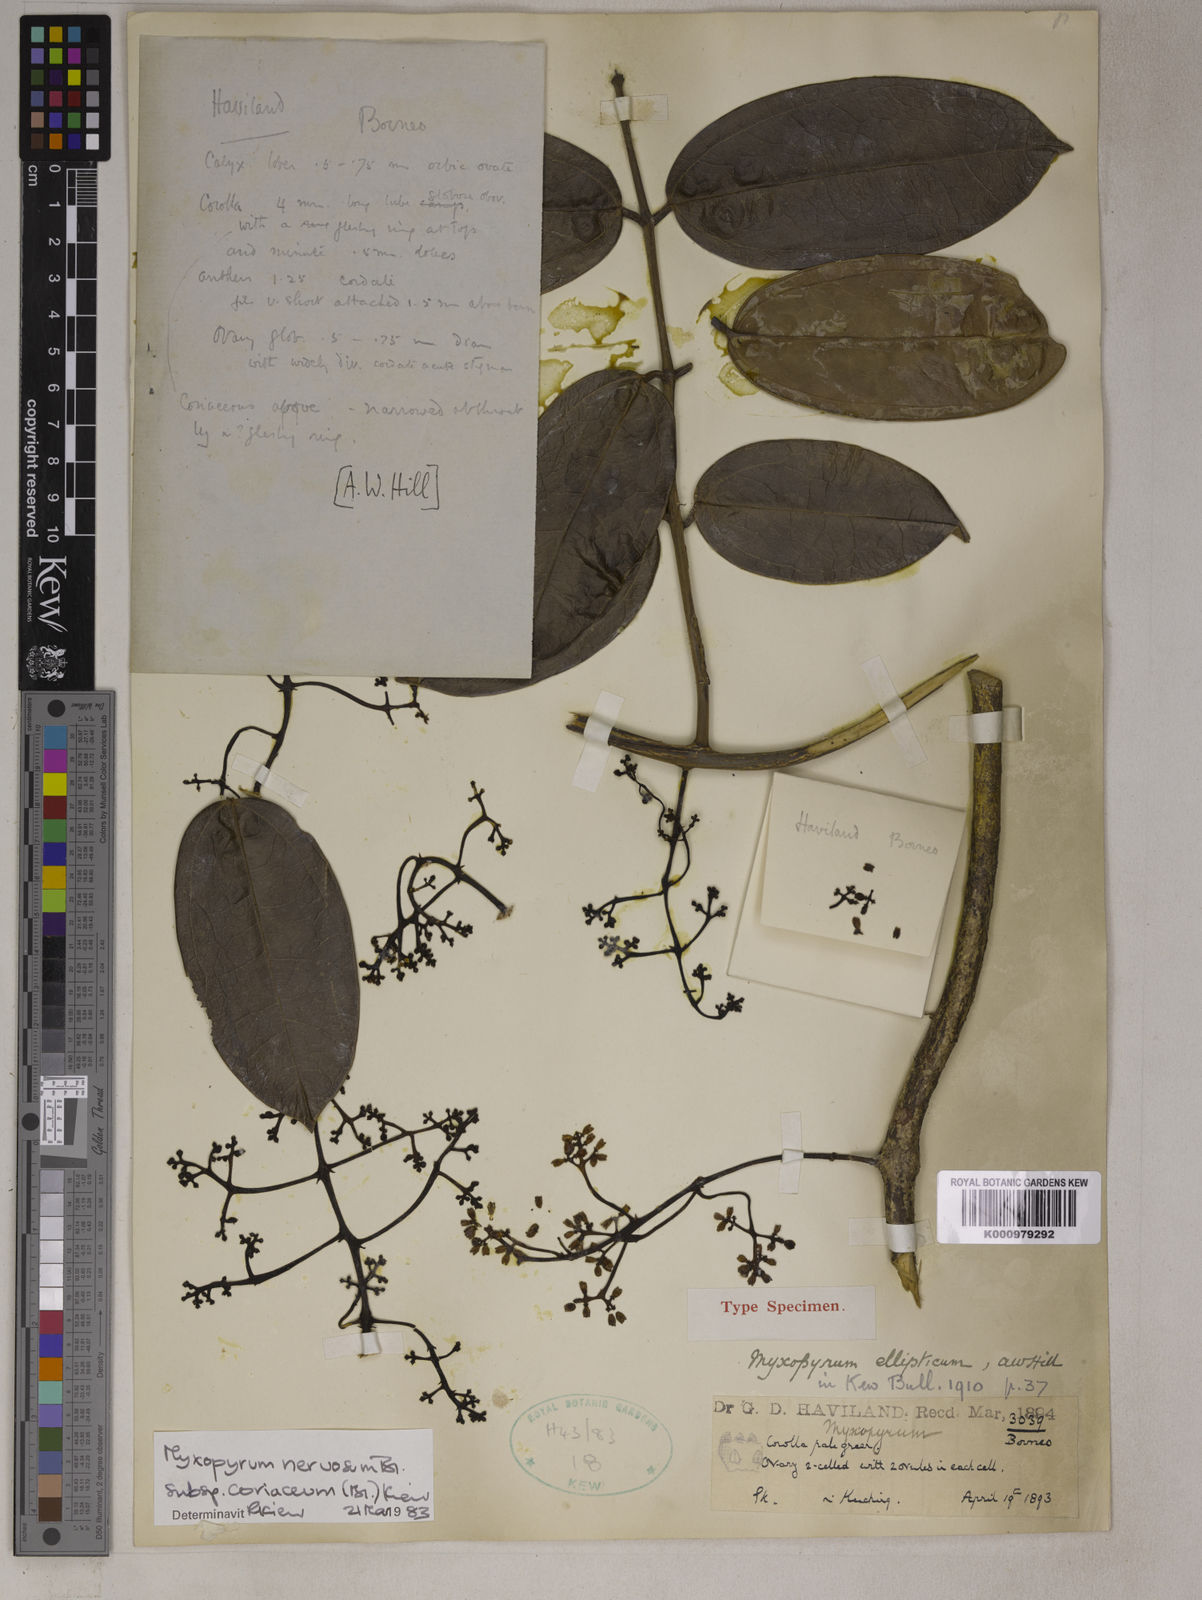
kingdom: Plantae
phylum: Tracheophyta
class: Magnoliopsida
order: Lamiales
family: Oleaceae
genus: Myxopyrum
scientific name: Myxopyrum nervosum
